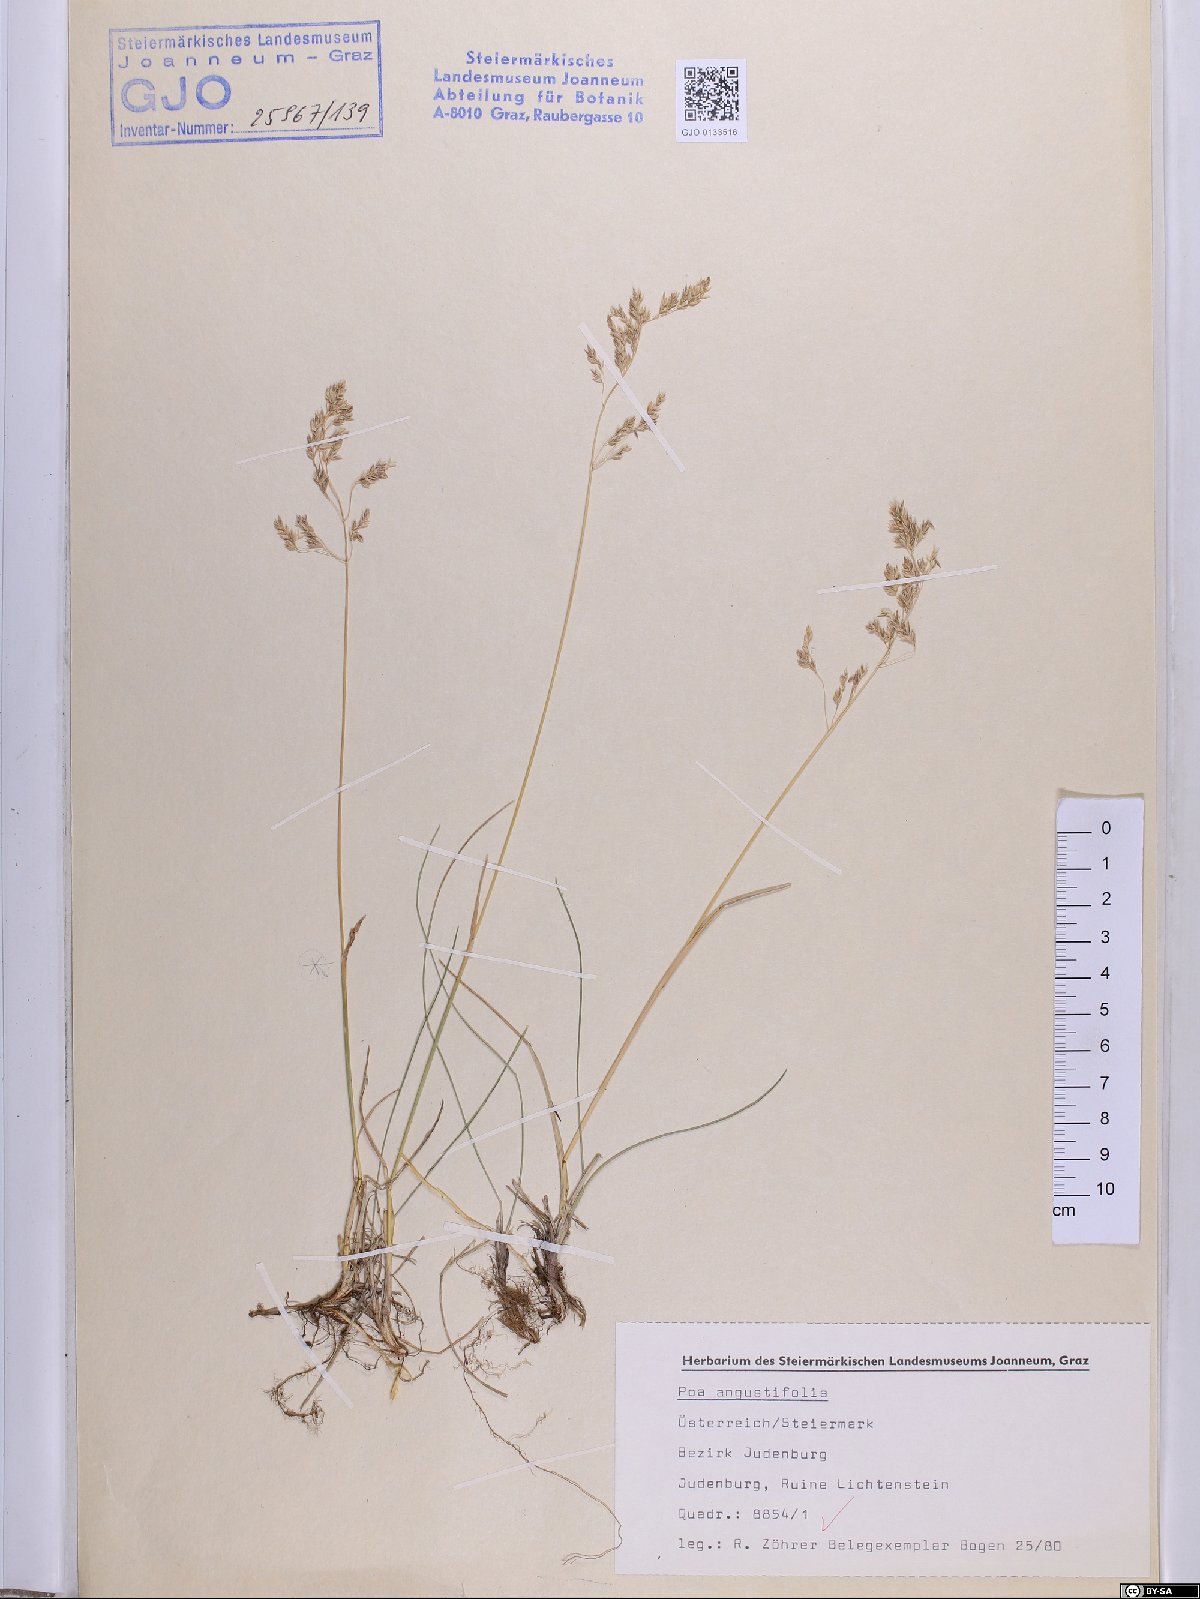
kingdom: Plantae
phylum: Tracheophyta
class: Liliopsida
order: Poales
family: Poaceae
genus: Poa
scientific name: Poa angustifolia
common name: Narrow-leaved meadow-grass
